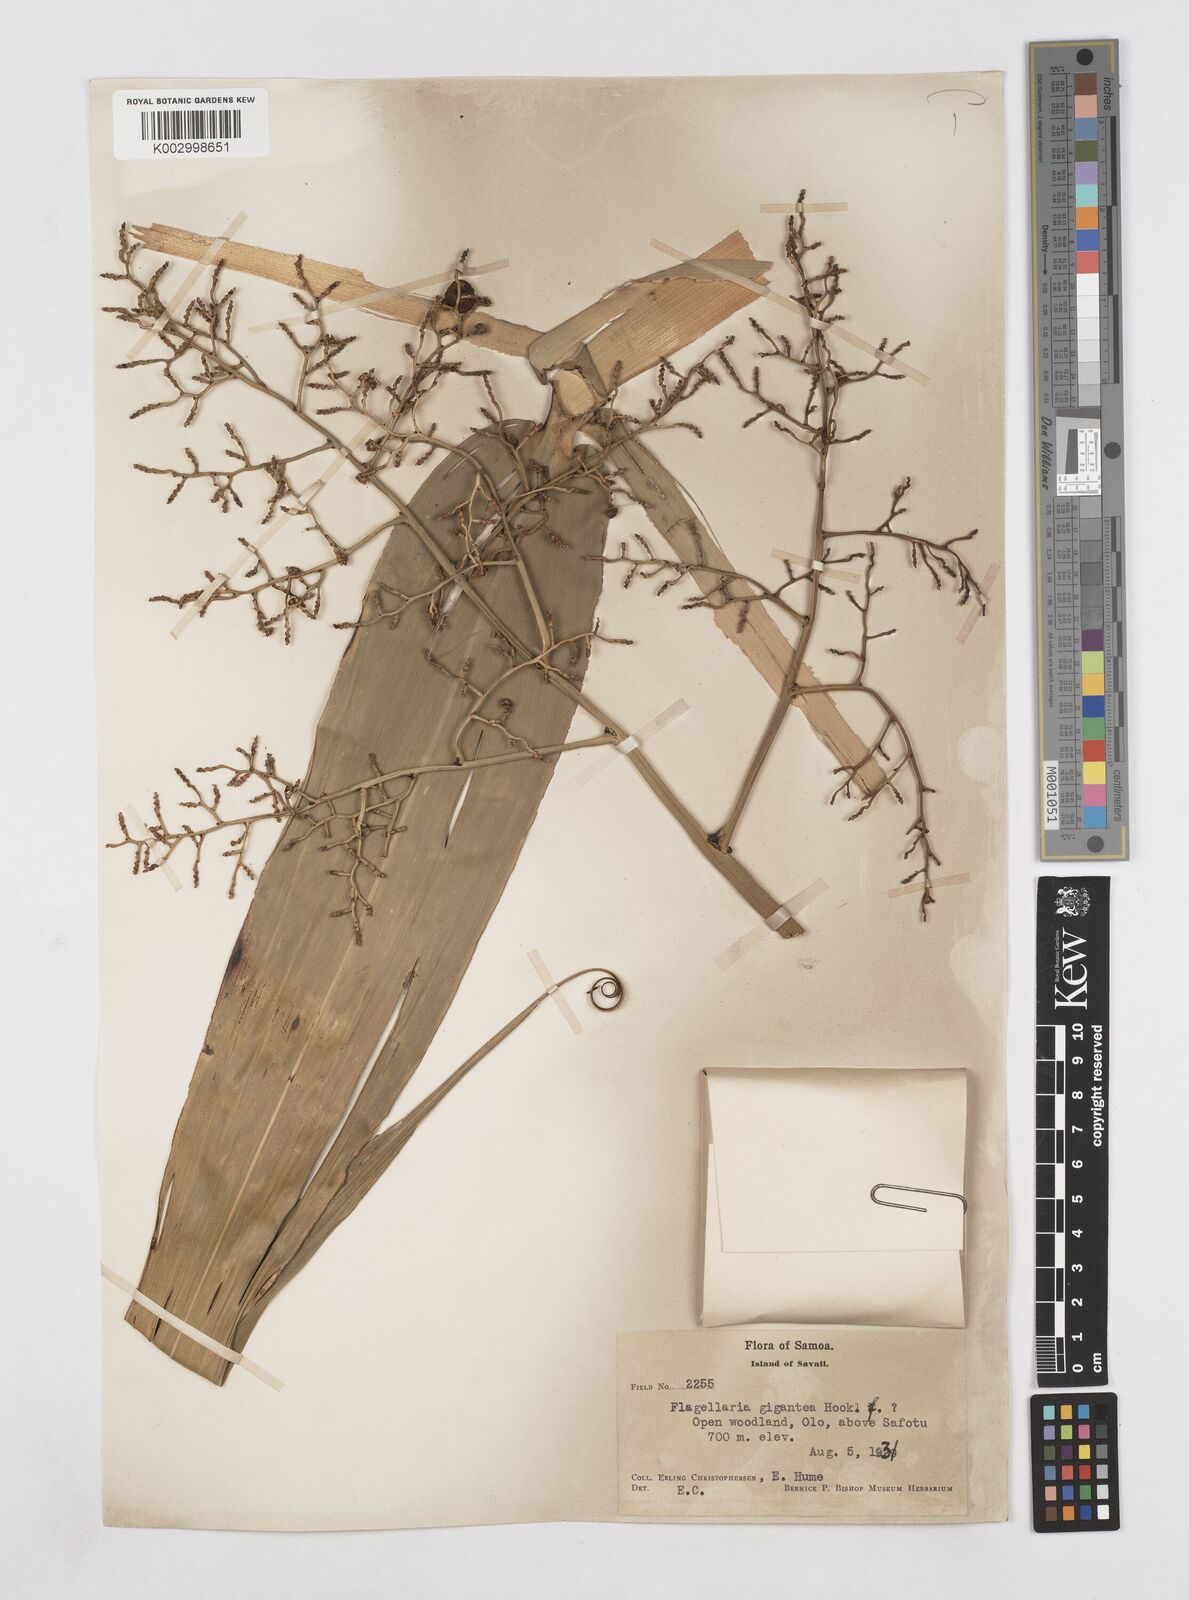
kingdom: Plantae
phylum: Tracheophyta
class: Liliopsida
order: Poales
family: Flagellariaceae
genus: Flagellaria
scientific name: Flagellaria gigantea
